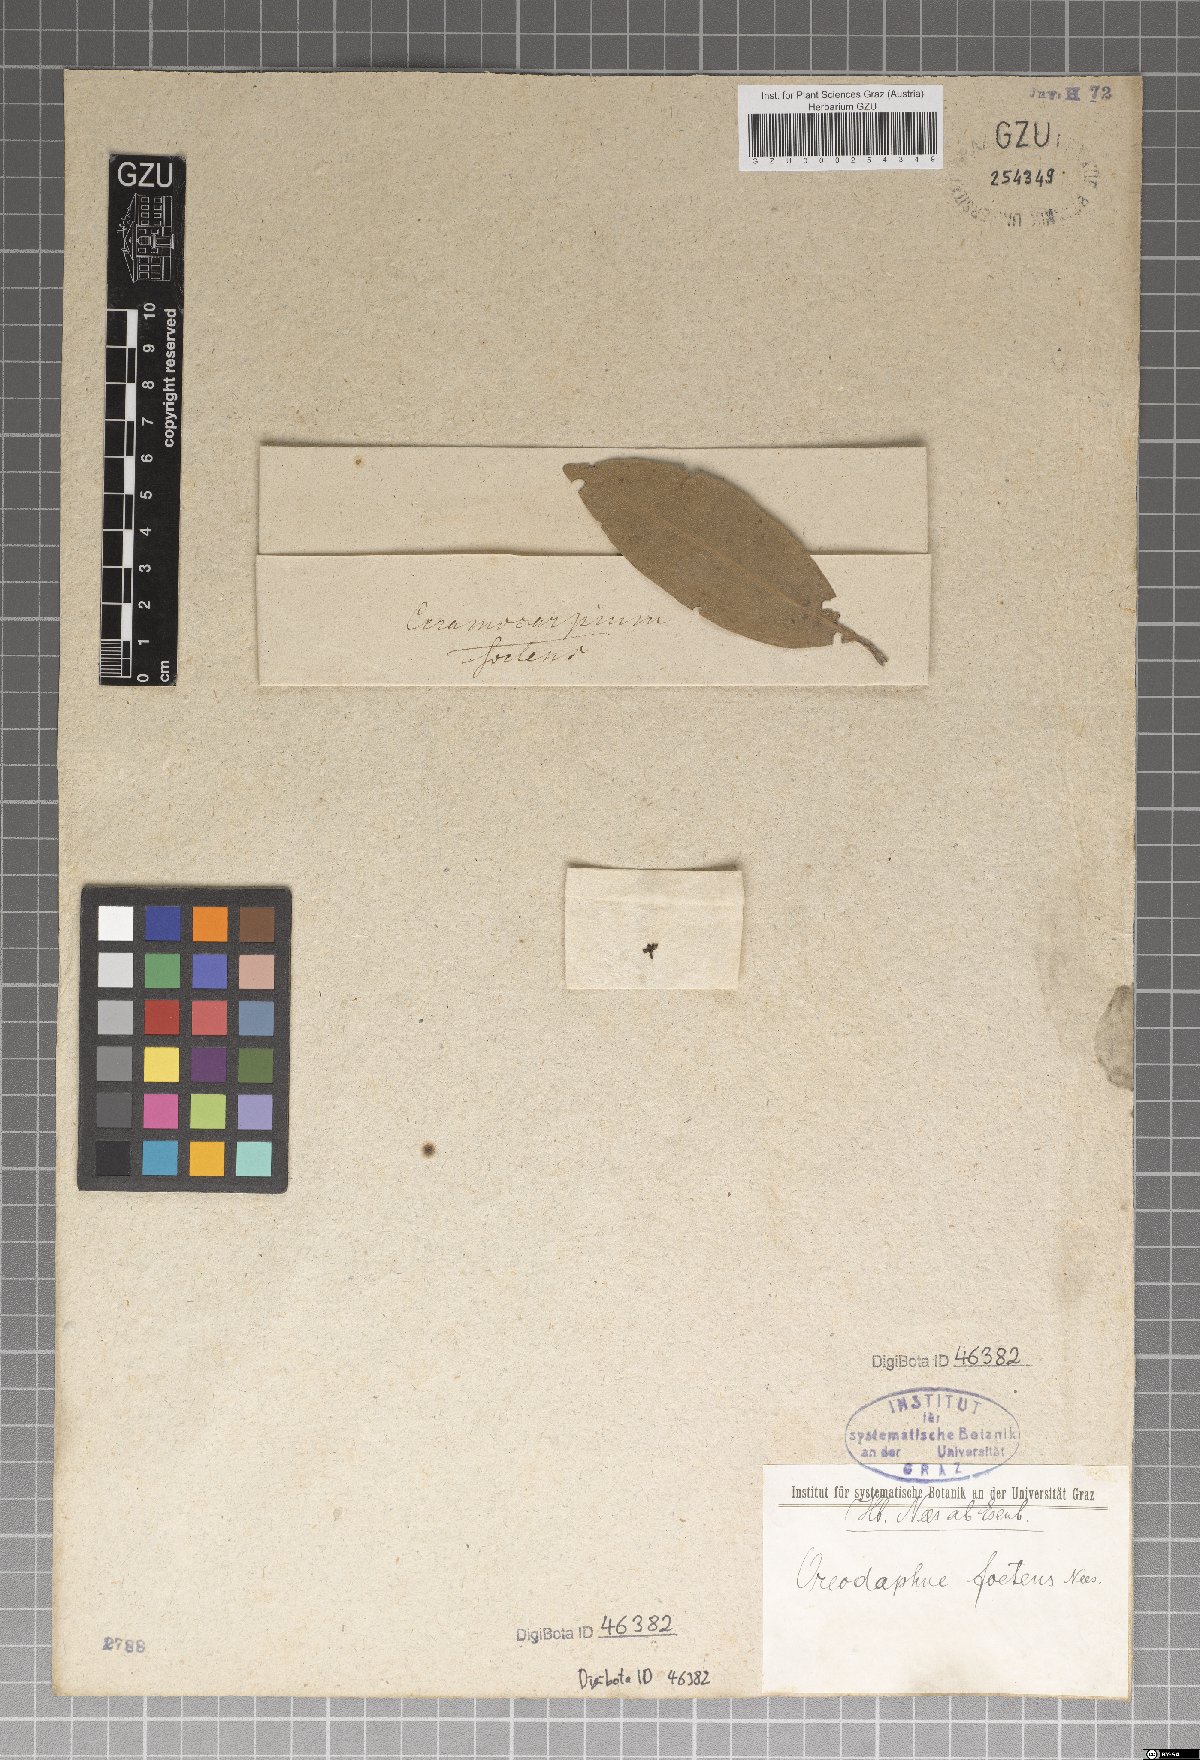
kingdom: Plantae
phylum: Tracheophyta
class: Magnoliopsida
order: Laurales
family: Lauraceae
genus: Mespilodaphne
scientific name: Mespilodaphne foetens
